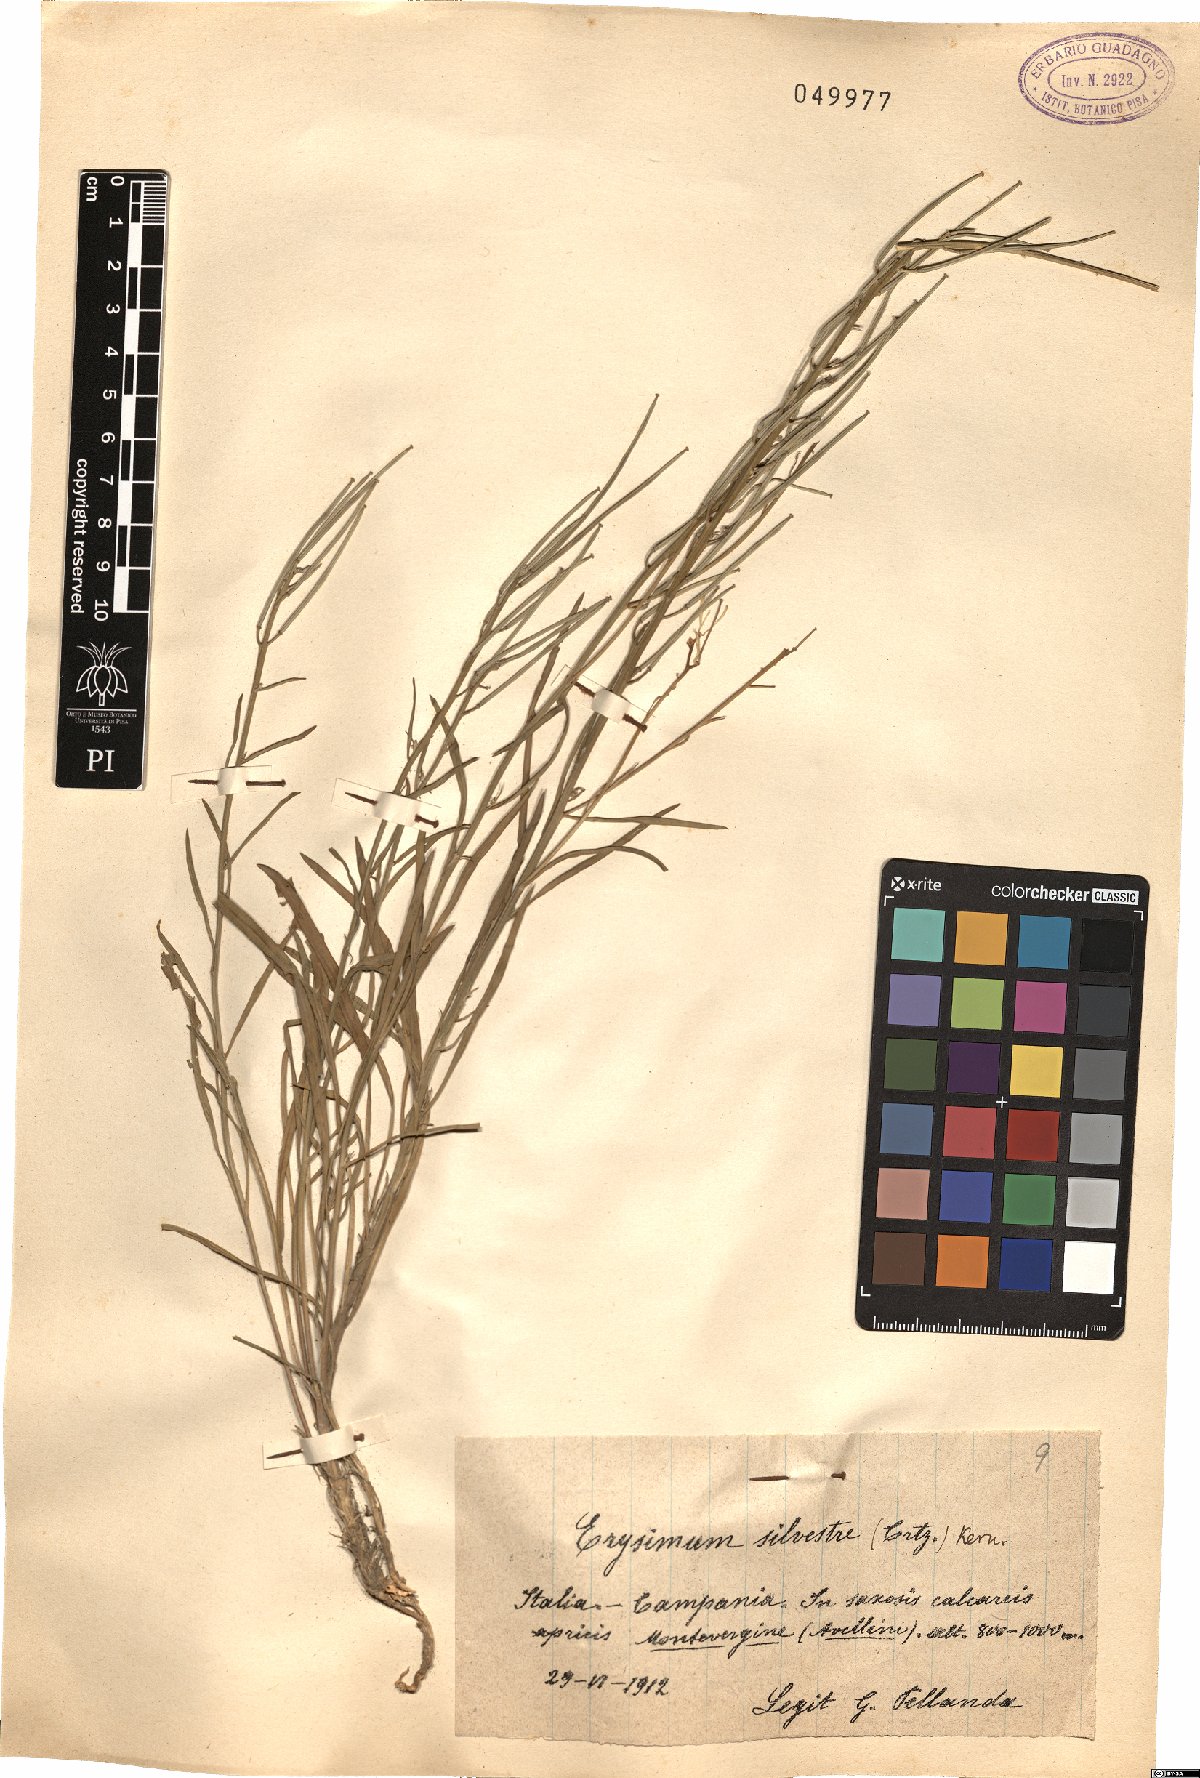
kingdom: Plantae
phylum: Tracheophyta
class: Magnoliopsida
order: Brassicales
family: Brassicaceae
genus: Erysimum
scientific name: Erysimum sylvestre
